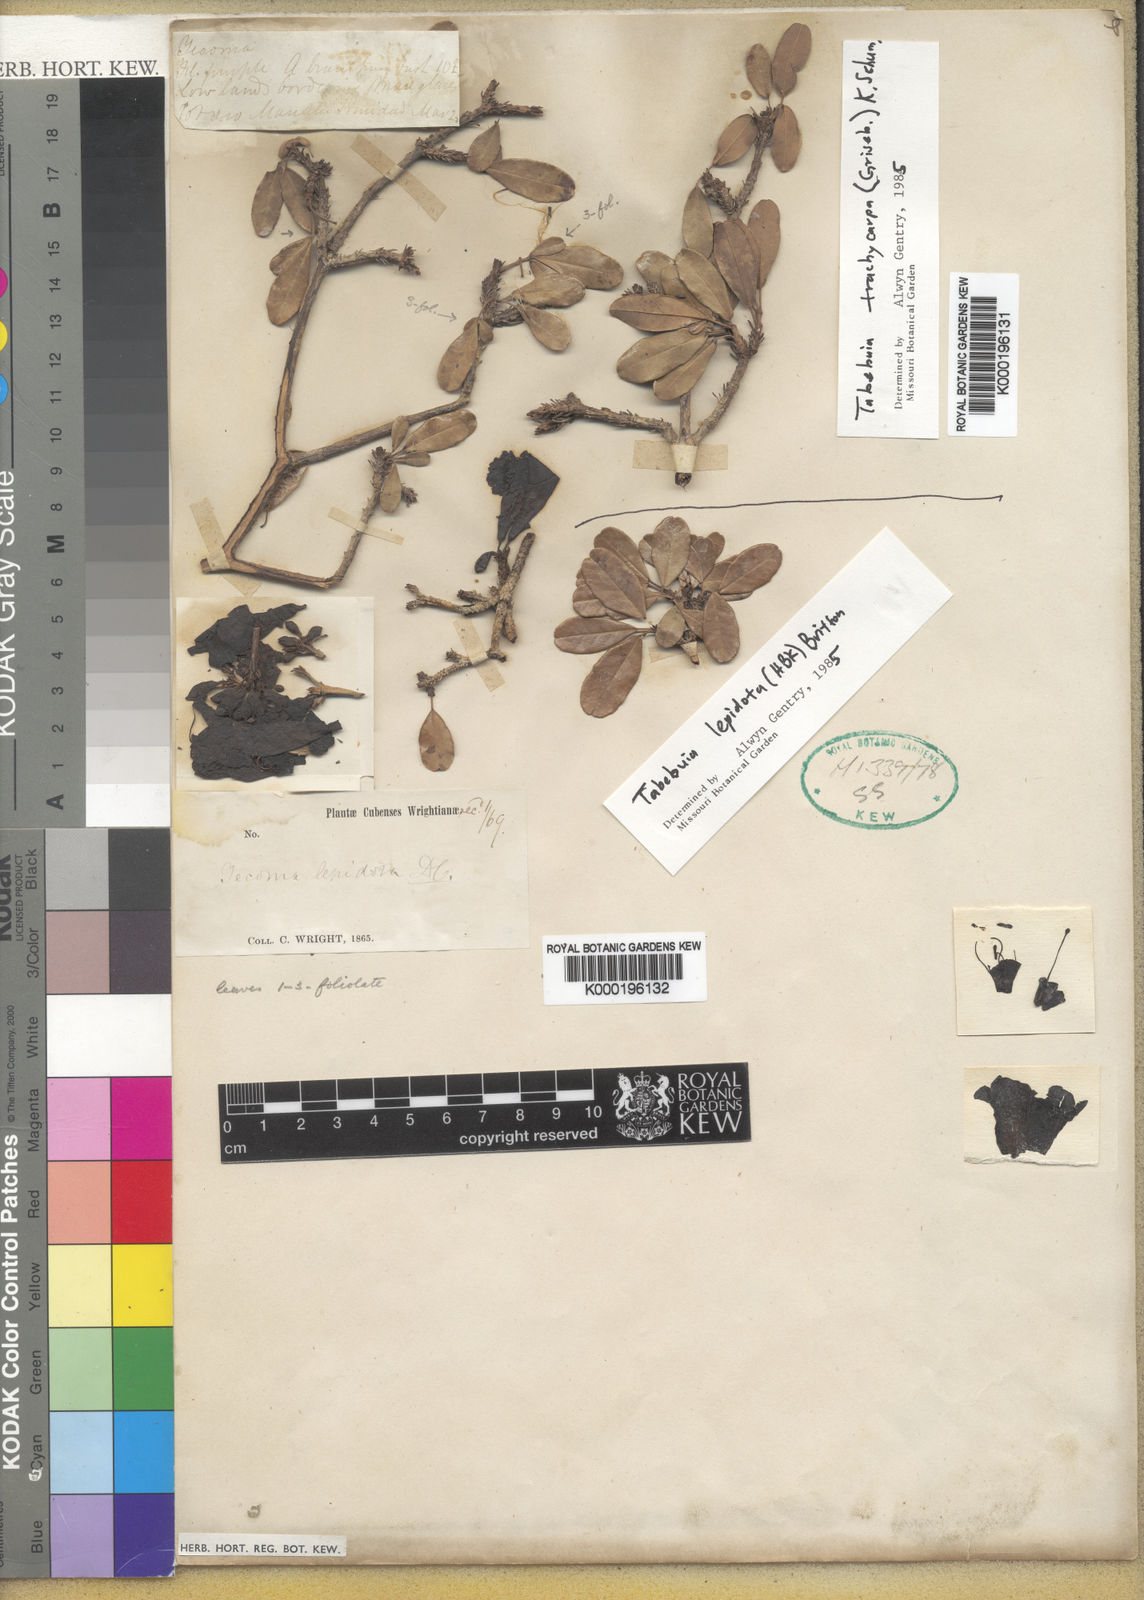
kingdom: Plantae
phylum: Tracheophyta
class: Magnoliopsida
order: Lamiales
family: Bignoniaceae
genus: Tabebuia
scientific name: Tabebuia lepidota
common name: One toe
